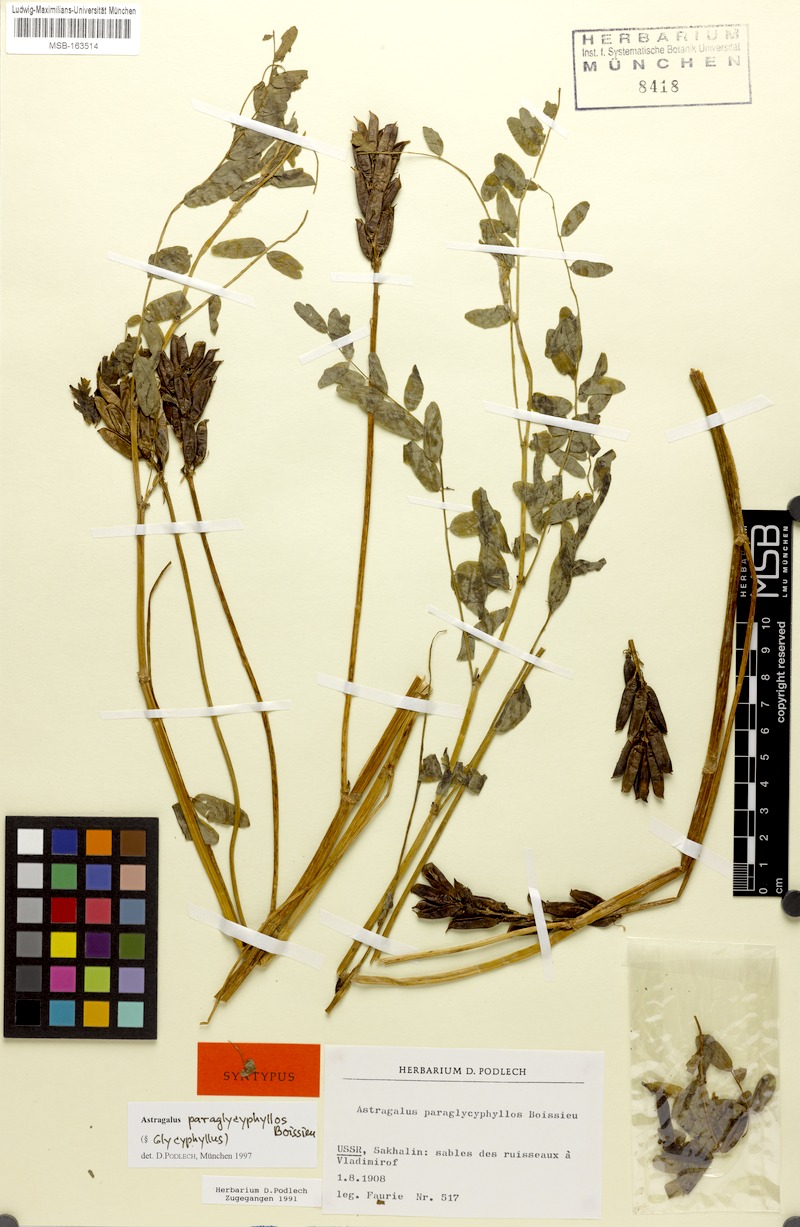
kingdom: Plantae
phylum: Tracheophyta
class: Magnoliopsida
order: Fabales
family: Fabaceae
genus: Astragalus
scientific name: Astragalus paraglycyphyllos
